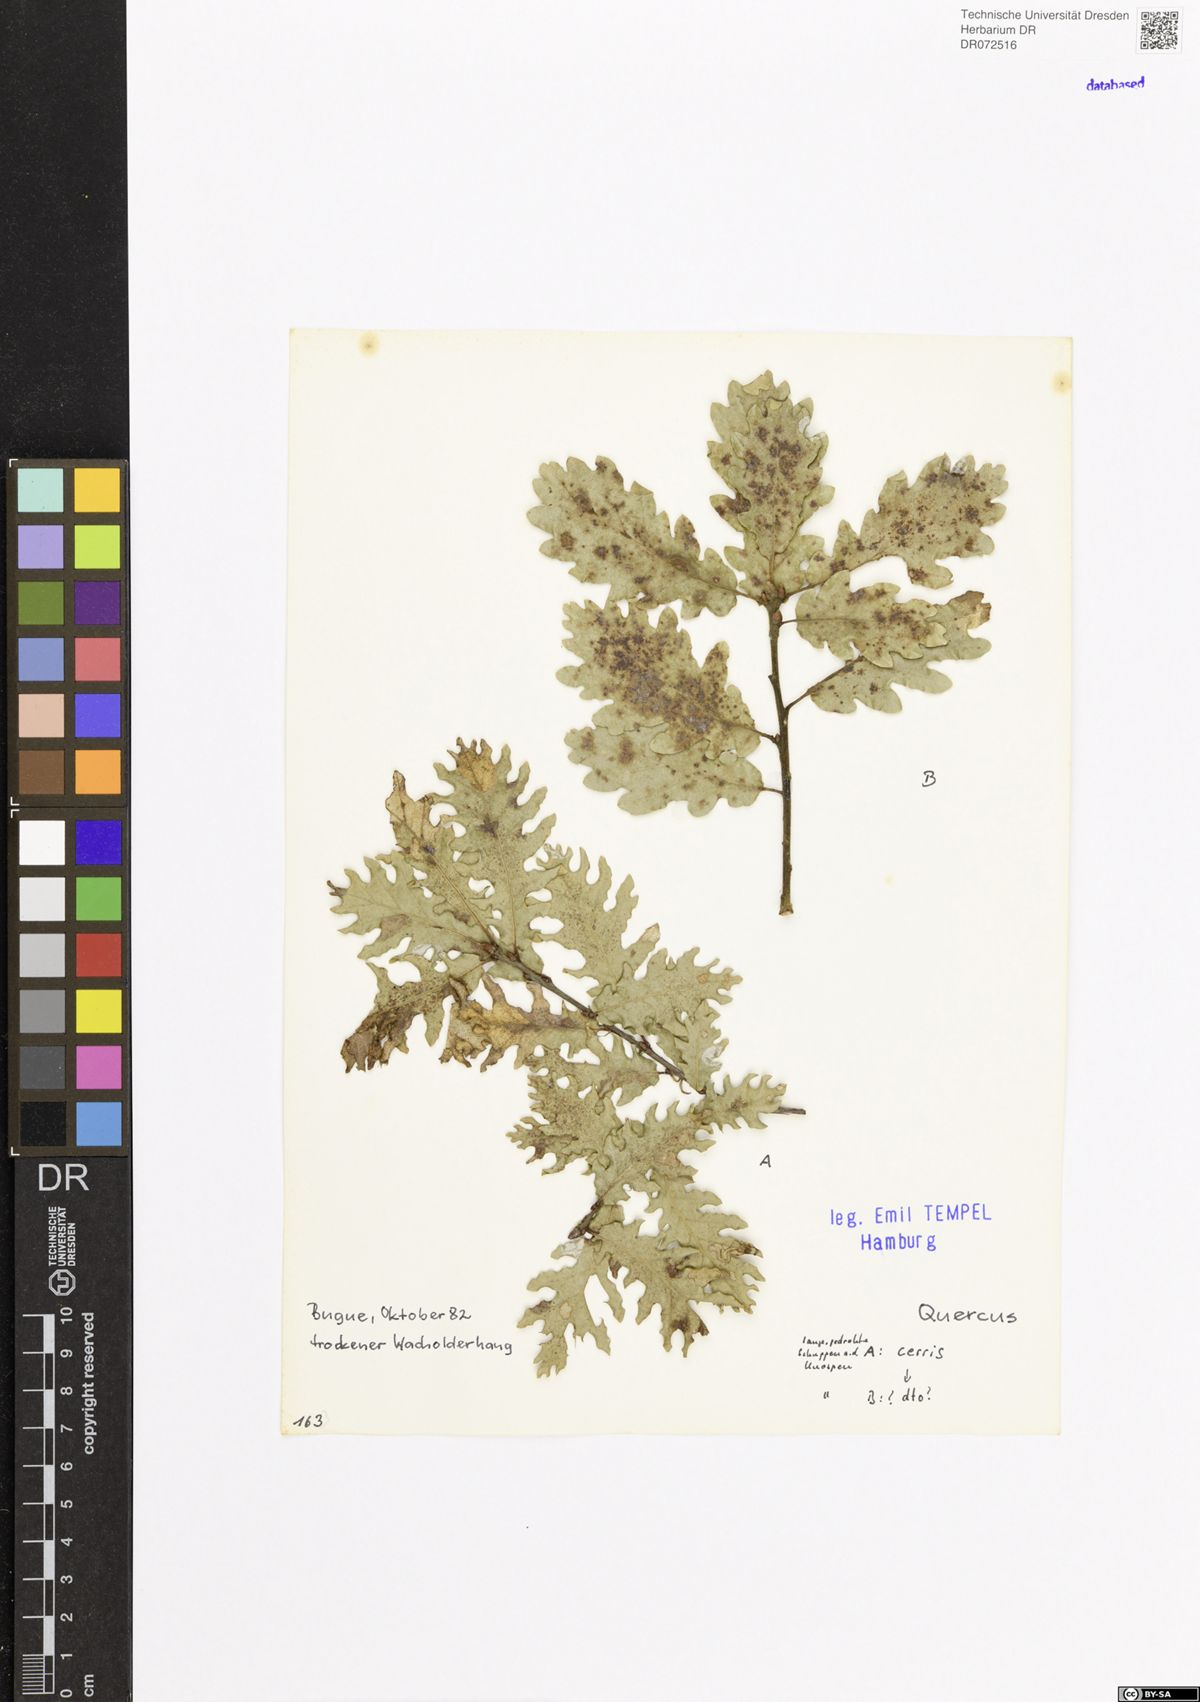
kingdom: Plantae
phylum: Tracheophyta
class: Magnoliopsida
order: Fagales
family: Fagaceae
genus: Quercus
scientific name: Quercus cerris
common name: Turkey oak
